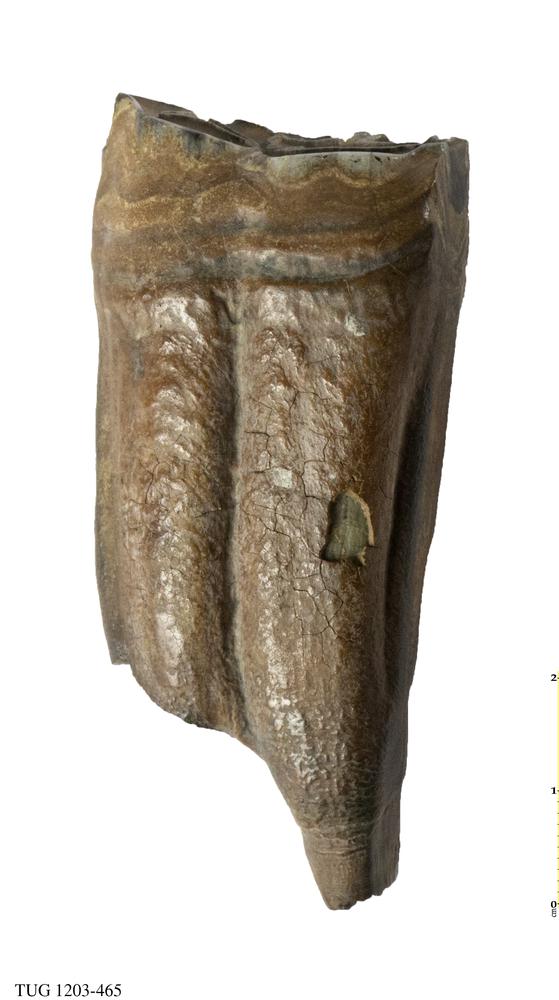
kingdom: Animalia
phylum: Chordata
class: Mammalia
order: Perissodactyla
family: Equidae
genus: Equus
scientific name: Equus
